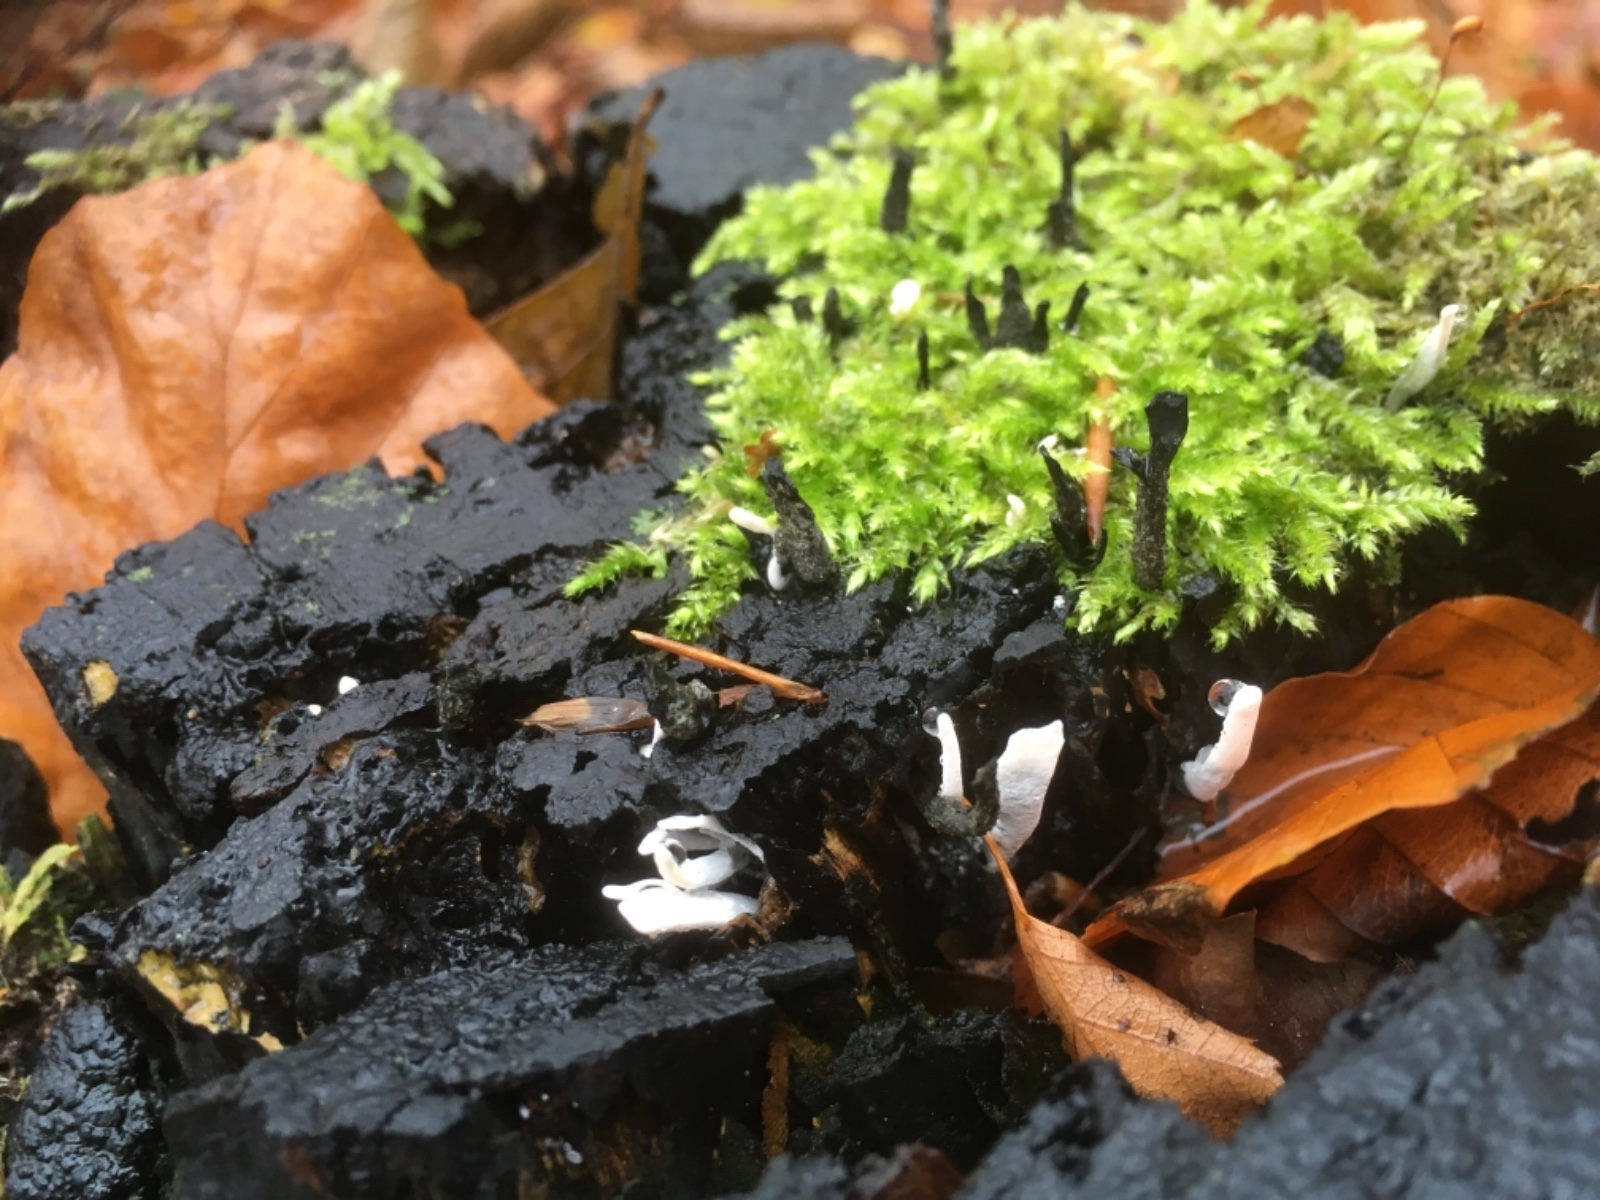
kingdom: Fungi
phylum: Ascomycota
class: Sordariomycetes
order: Xylariales
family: Xylariaceae
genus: Xylaria
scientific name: Xylaria hypoxylon
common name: grenet stødsvamp
